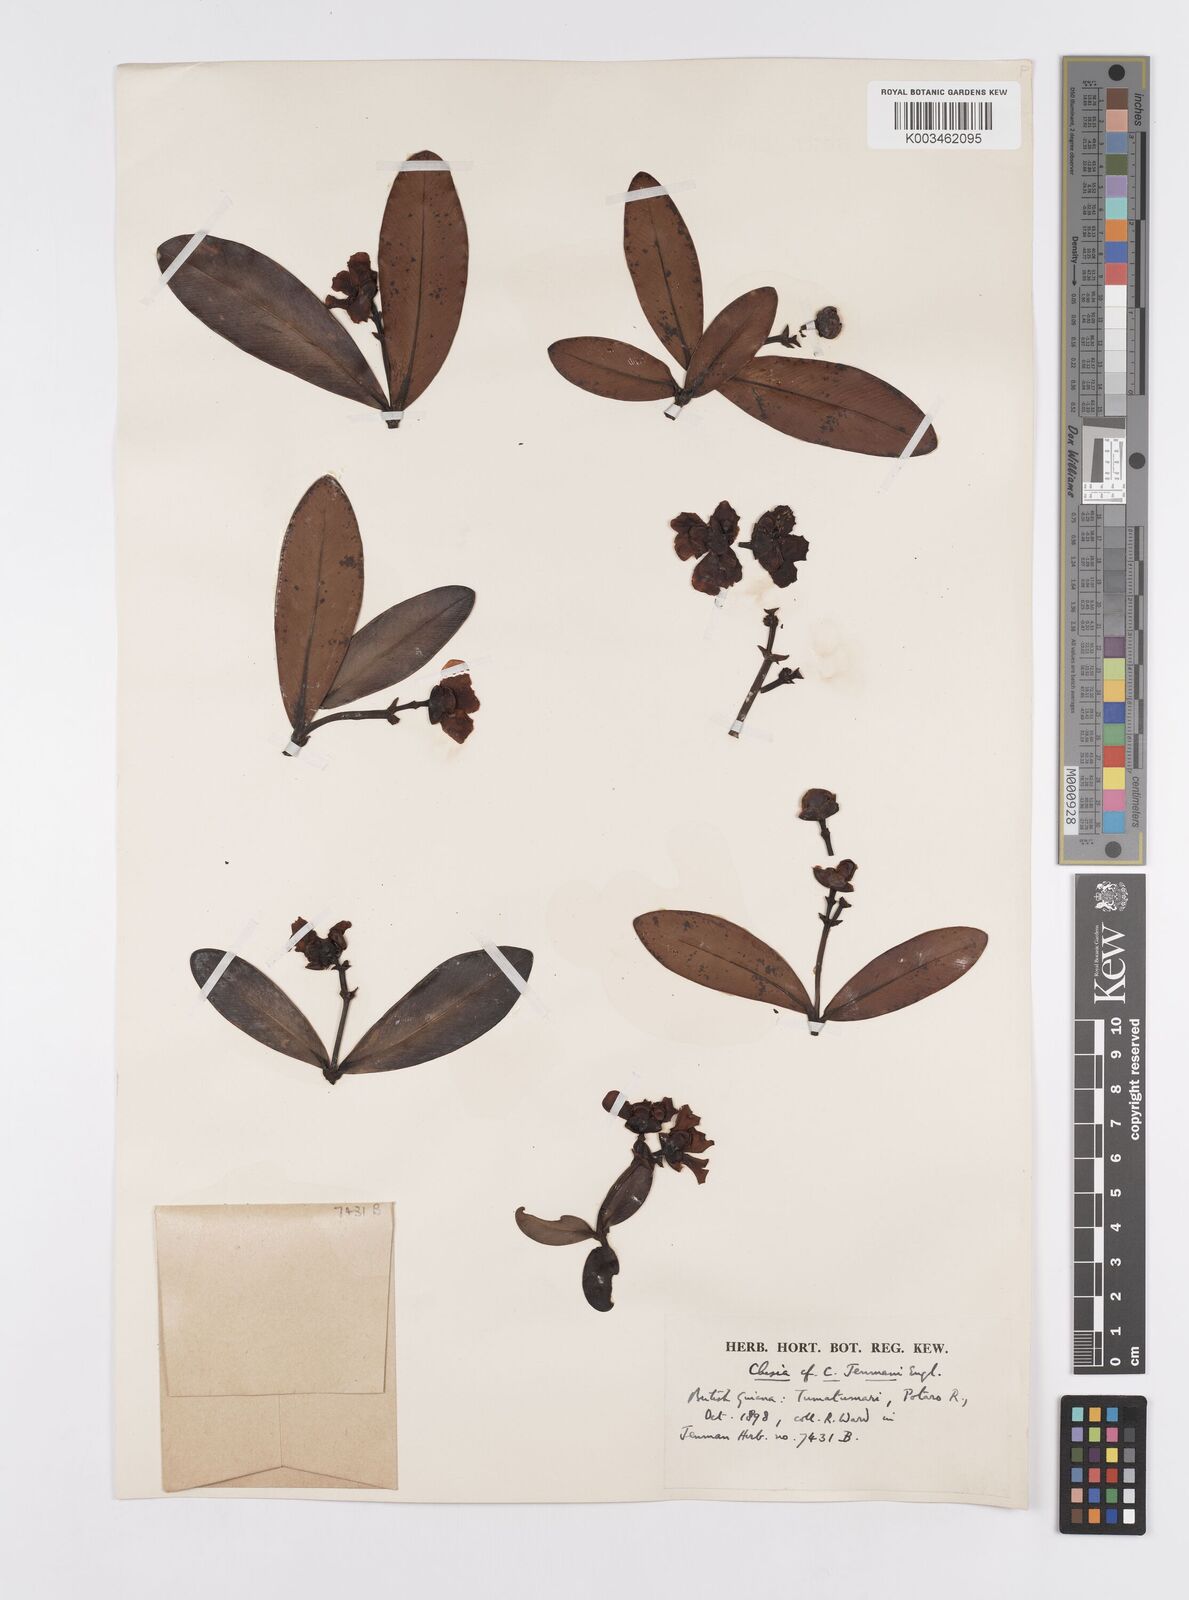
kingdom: Plantae
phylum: Tracheophyta
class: Magnoliopsida
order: Malpighiales
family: Clusiaceae
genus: Clusia
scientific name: Clusia myriandra
